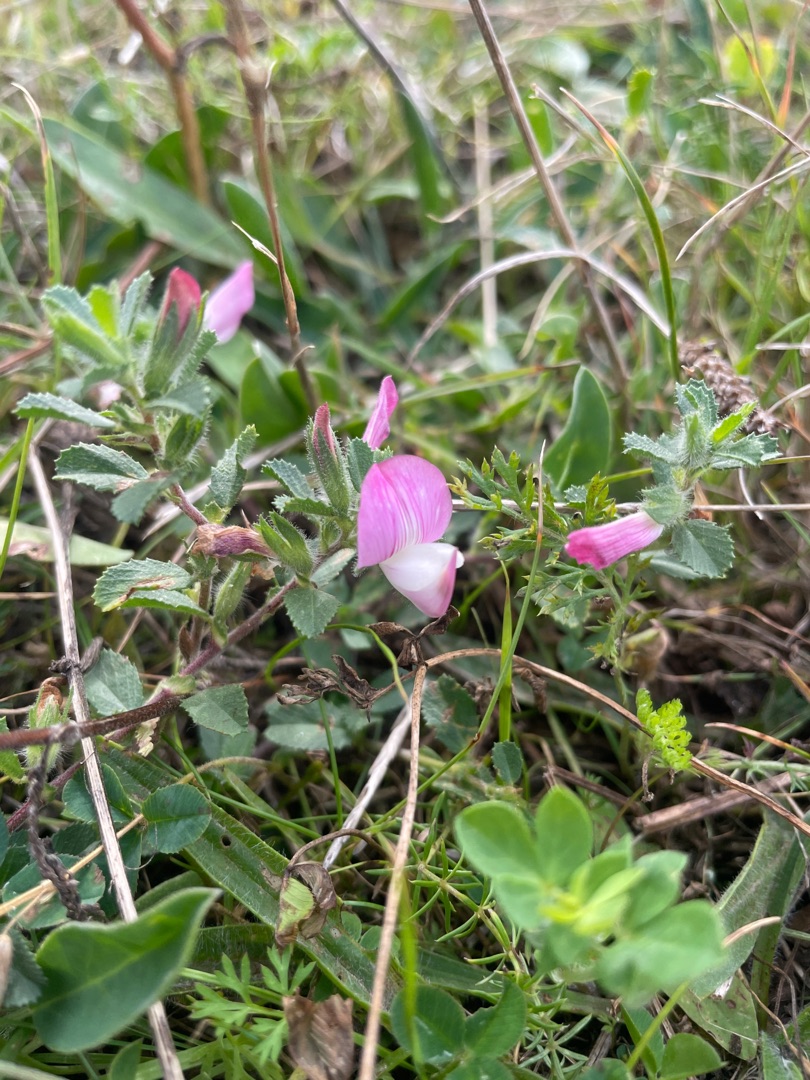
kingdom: Plantae
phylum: Tracheophyta
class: Magnoliopsida
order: Fabales
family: Fabaceae
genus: Ononis
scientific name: Ononis spinosa
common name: Krageklo
